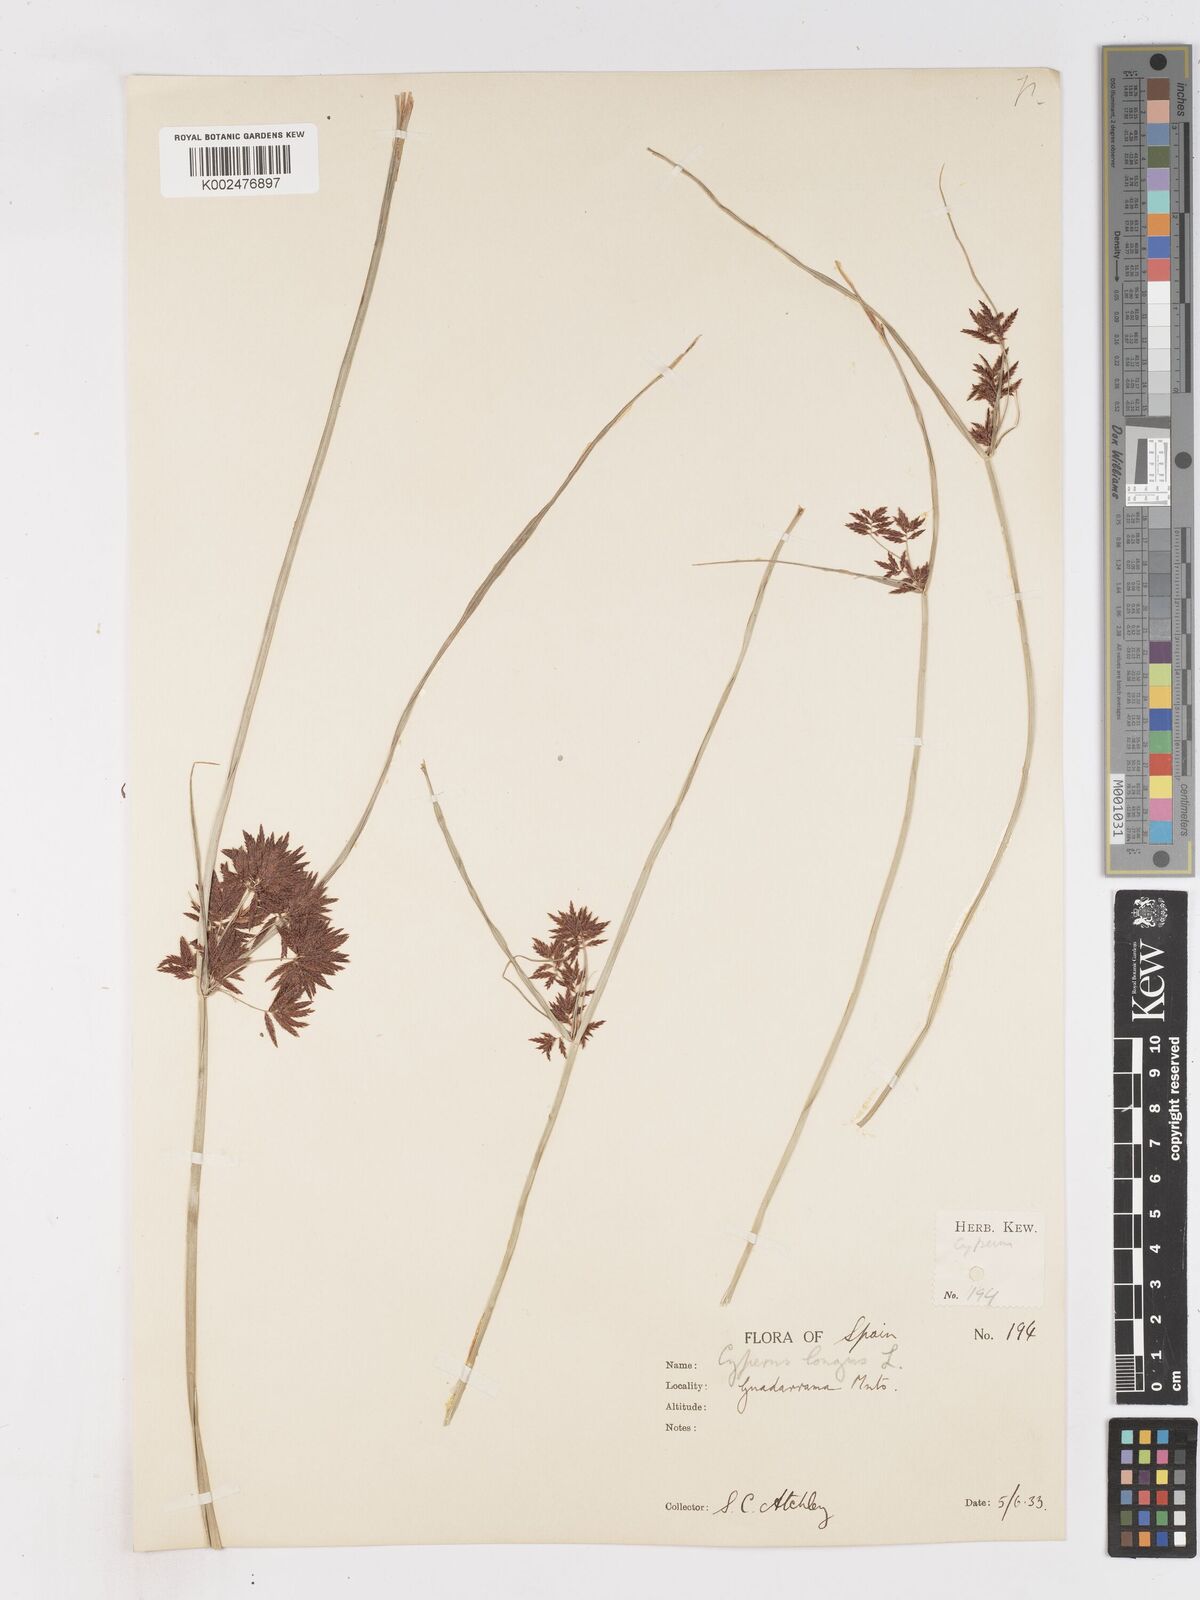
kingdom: Plantae
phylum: Tracheophyta
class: Liliopsida
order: Poales
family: Cyperaceae
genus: Cyperus
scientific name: Cyperus longus
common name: Galingale
